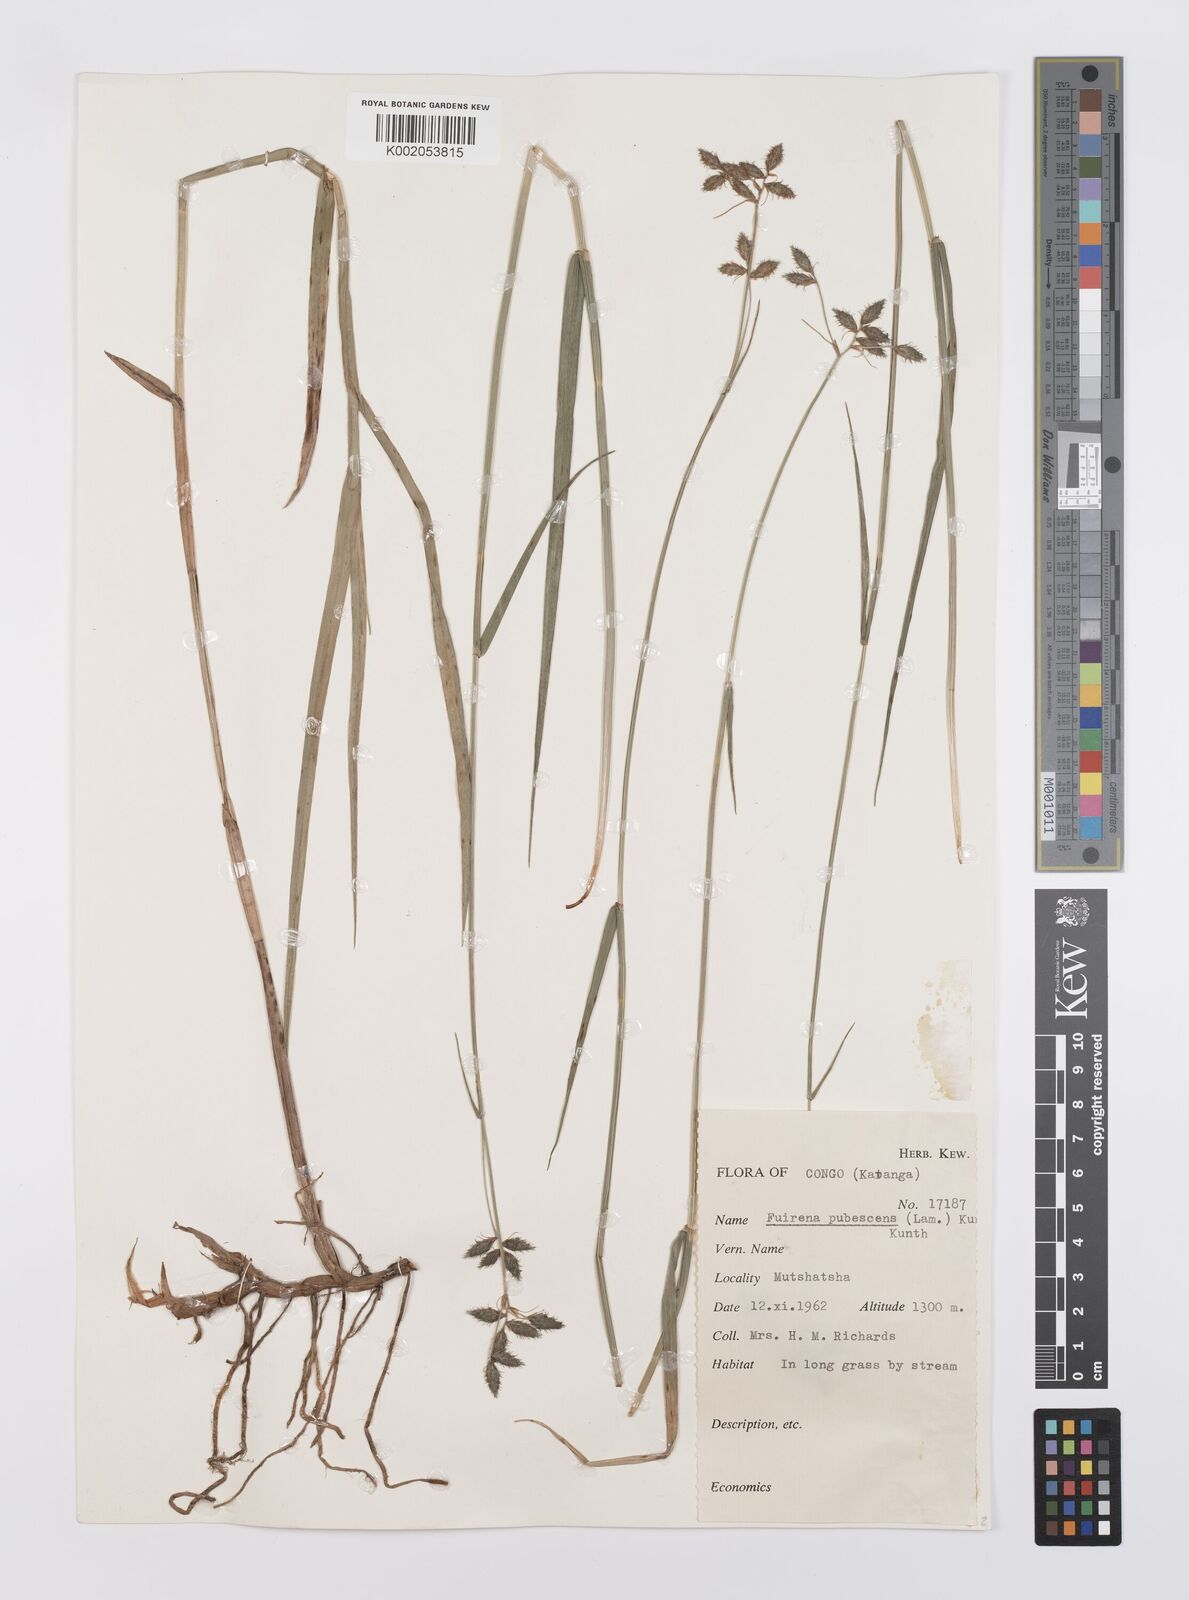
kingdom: Plantae
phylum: Tracheophyta
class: Liliopsida
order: Poales
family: Cyperaceae
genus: Fuirena
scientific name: Fuirena pachyrrhiza
